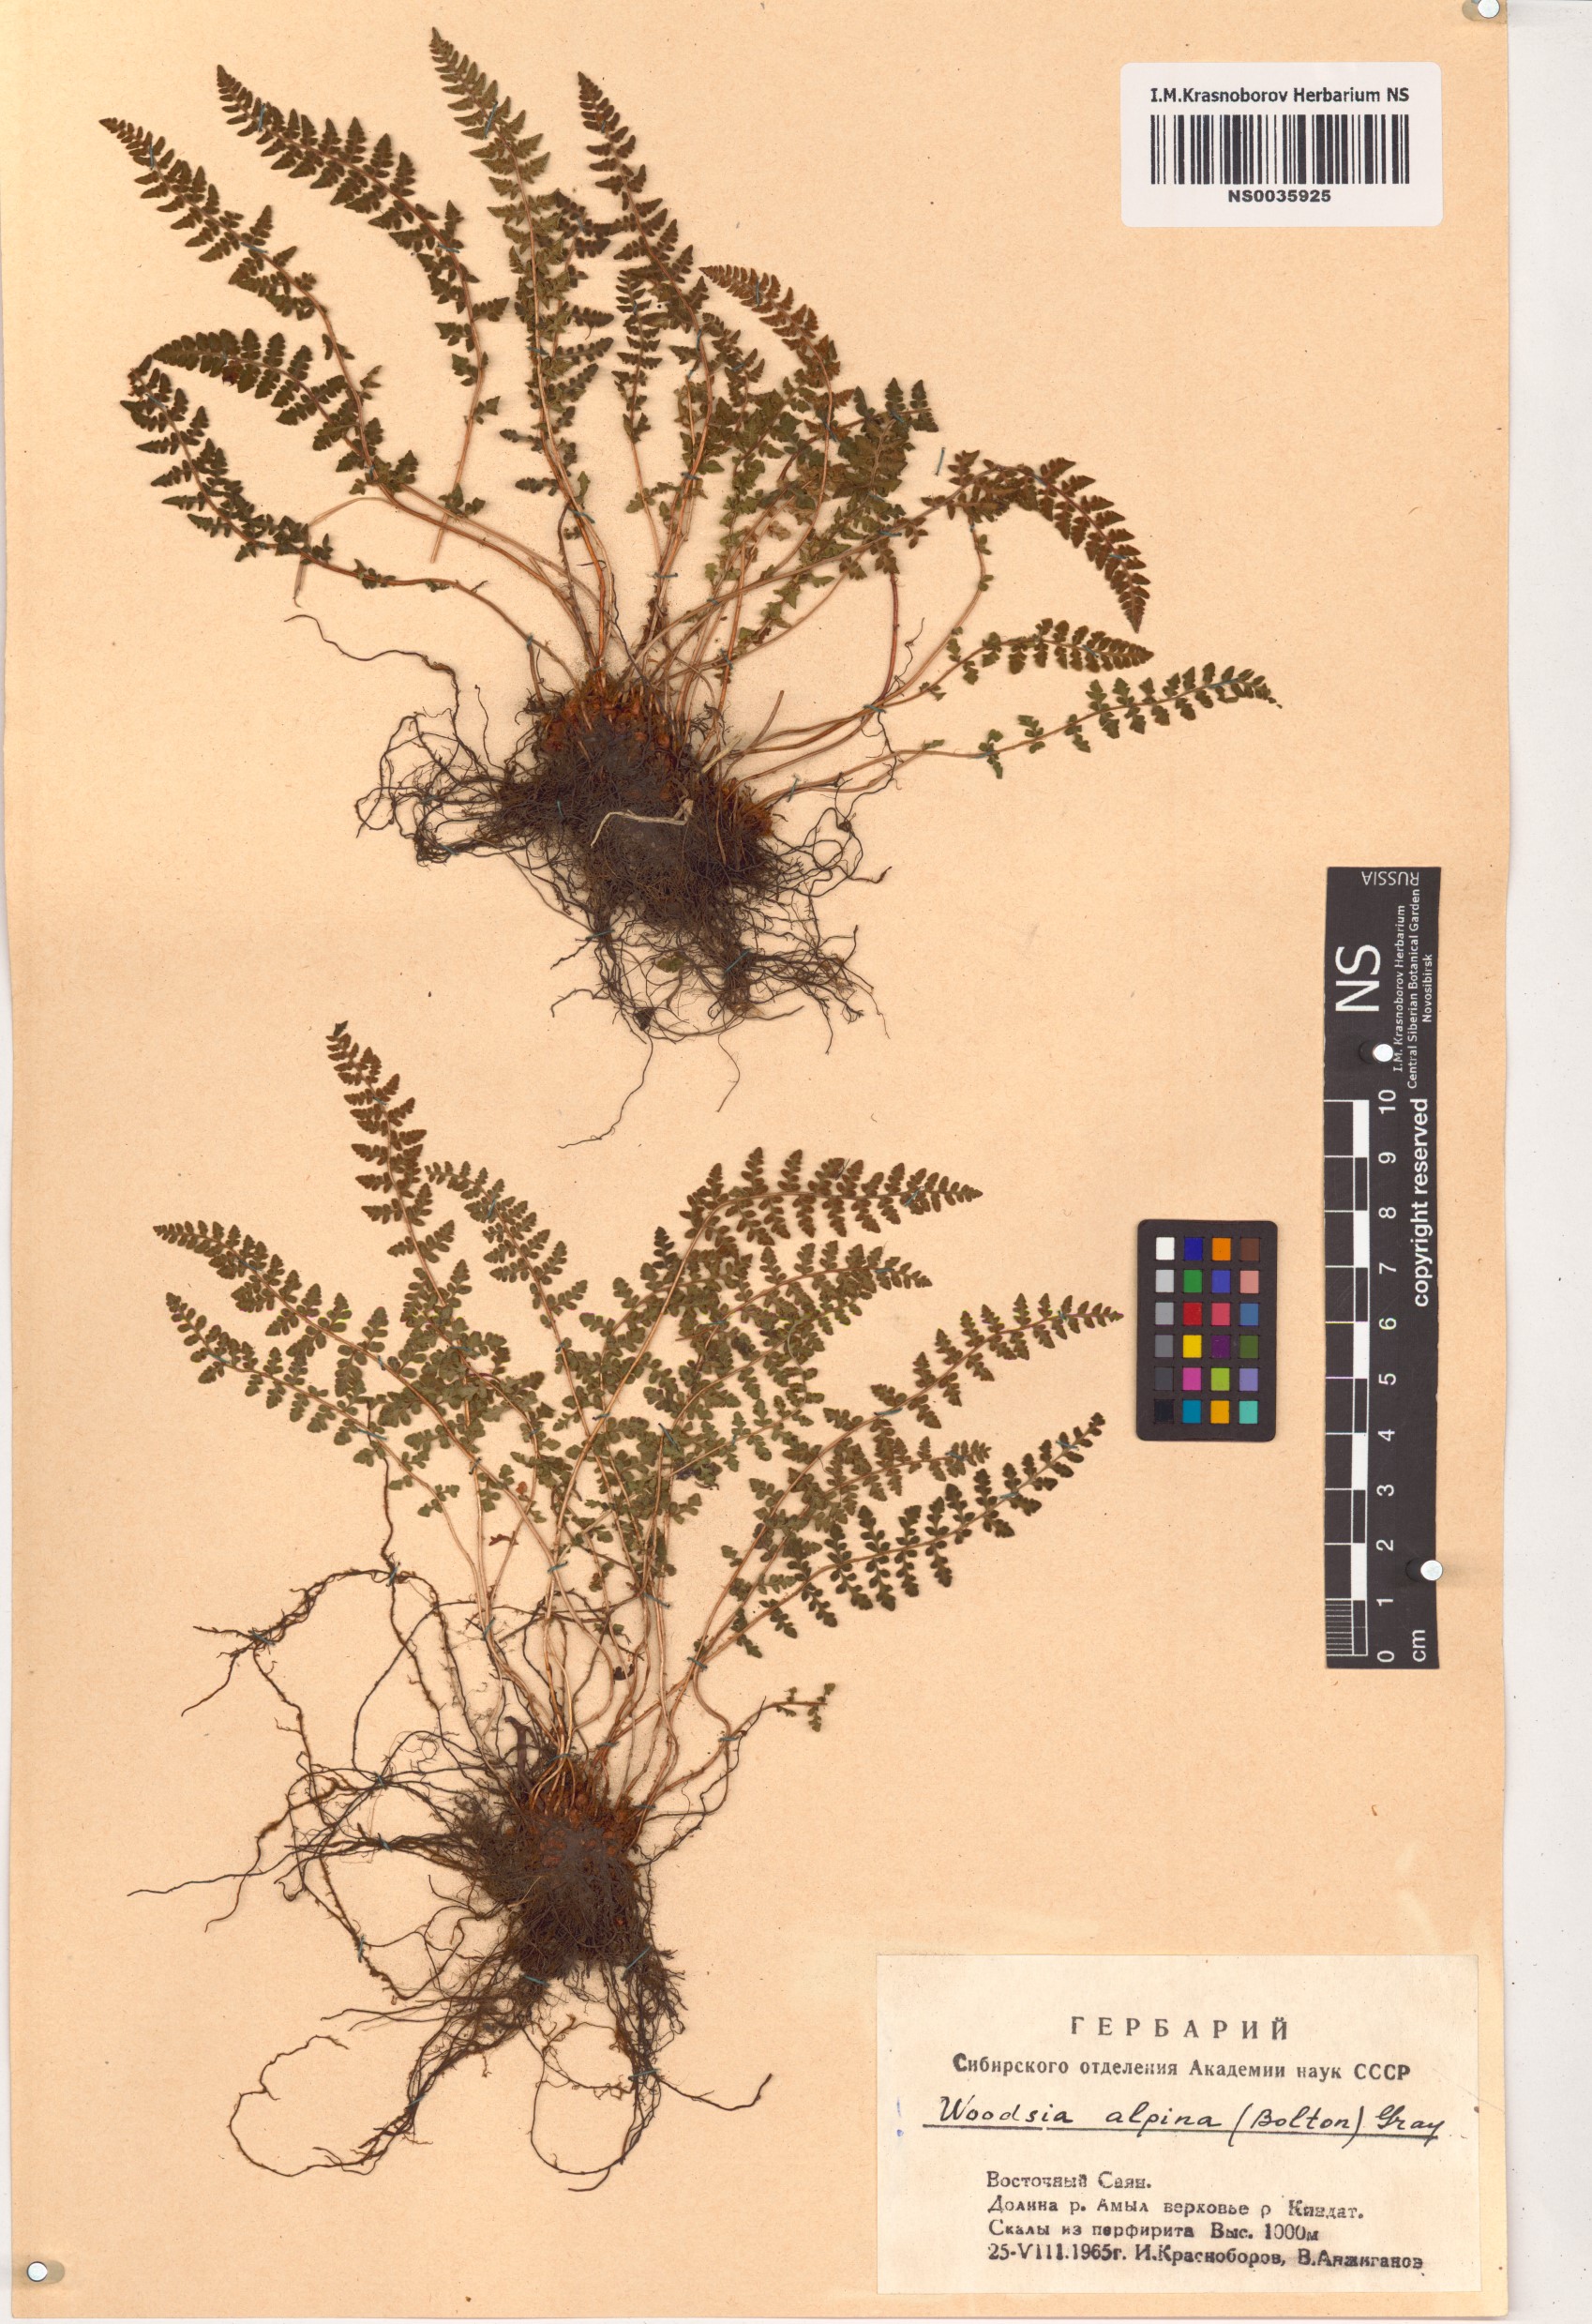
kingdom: Plantae
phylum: Tracheophyta
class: Polypodiopsida
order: Polypodiales
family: Woodsiaceae
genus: Woodsia
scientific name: Woodsia alpina
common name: Alpine woodsia
